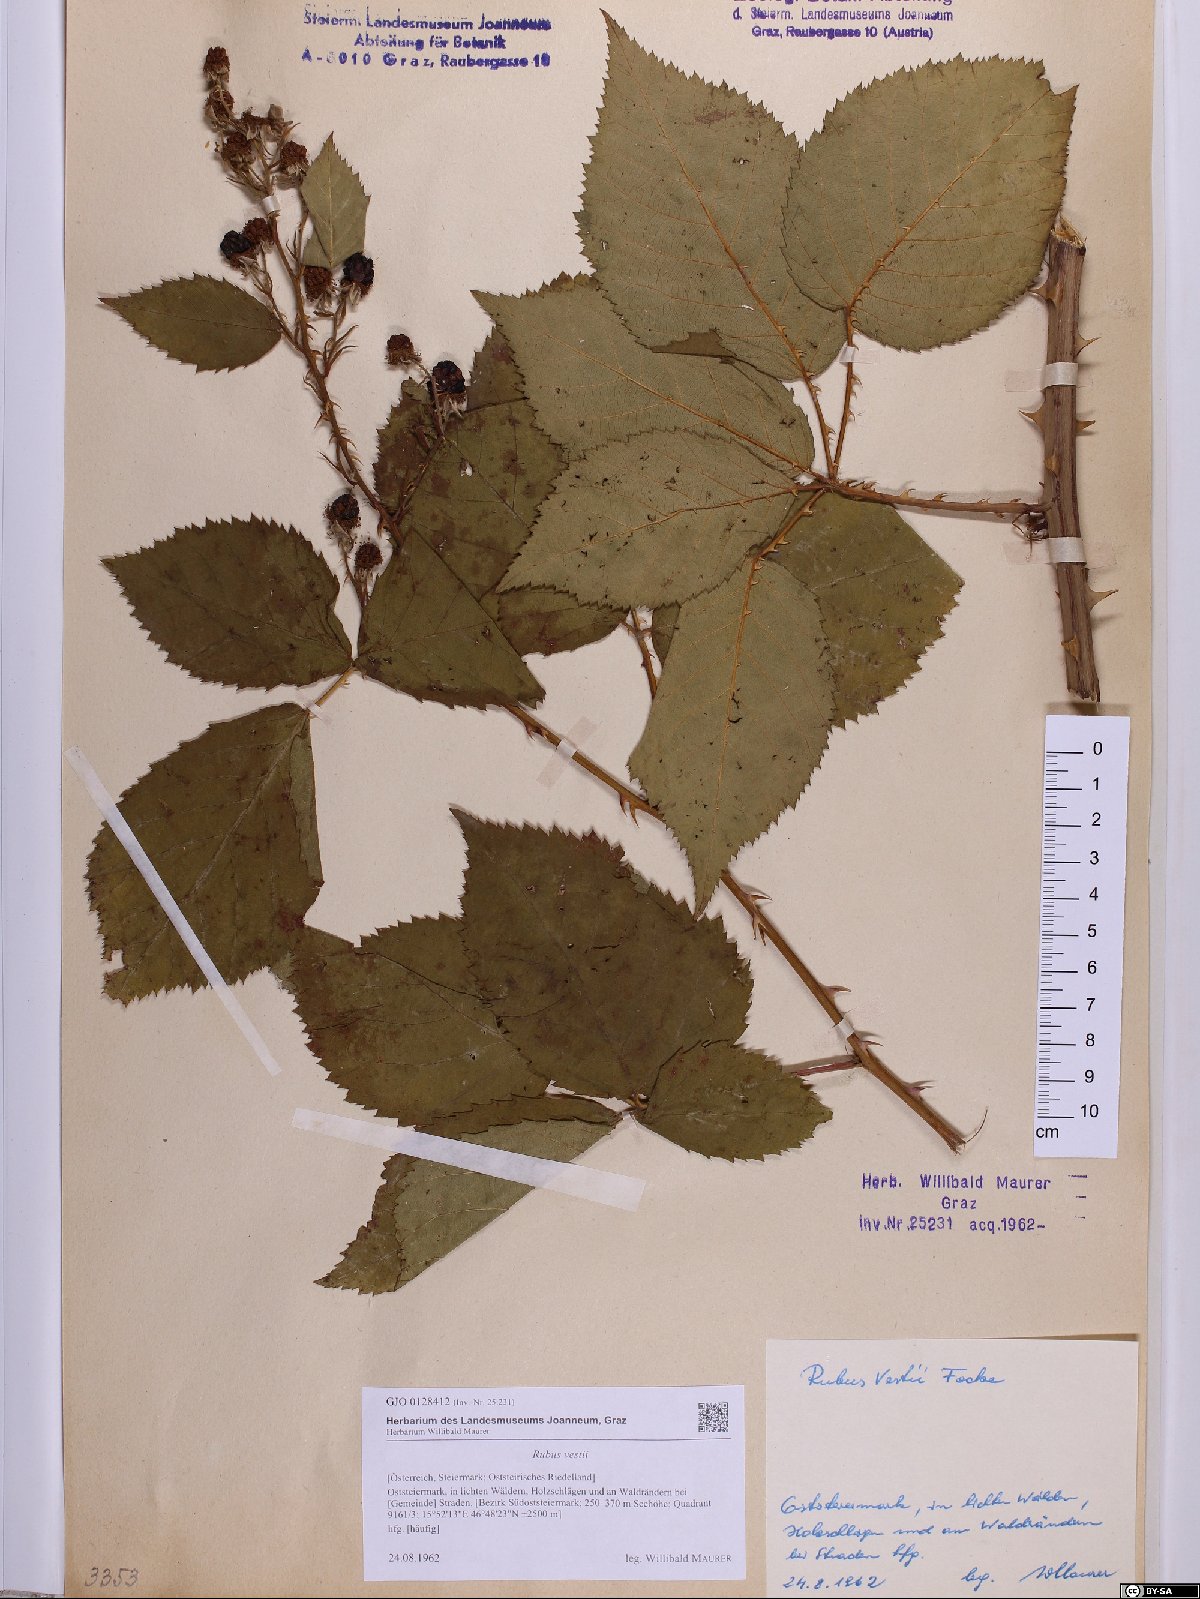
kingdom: Plantae
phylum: Tracheophyta
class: Magnoliopsida
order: Rosales
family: Rosaceae
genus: Rubus
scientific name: Rubus constrictus
